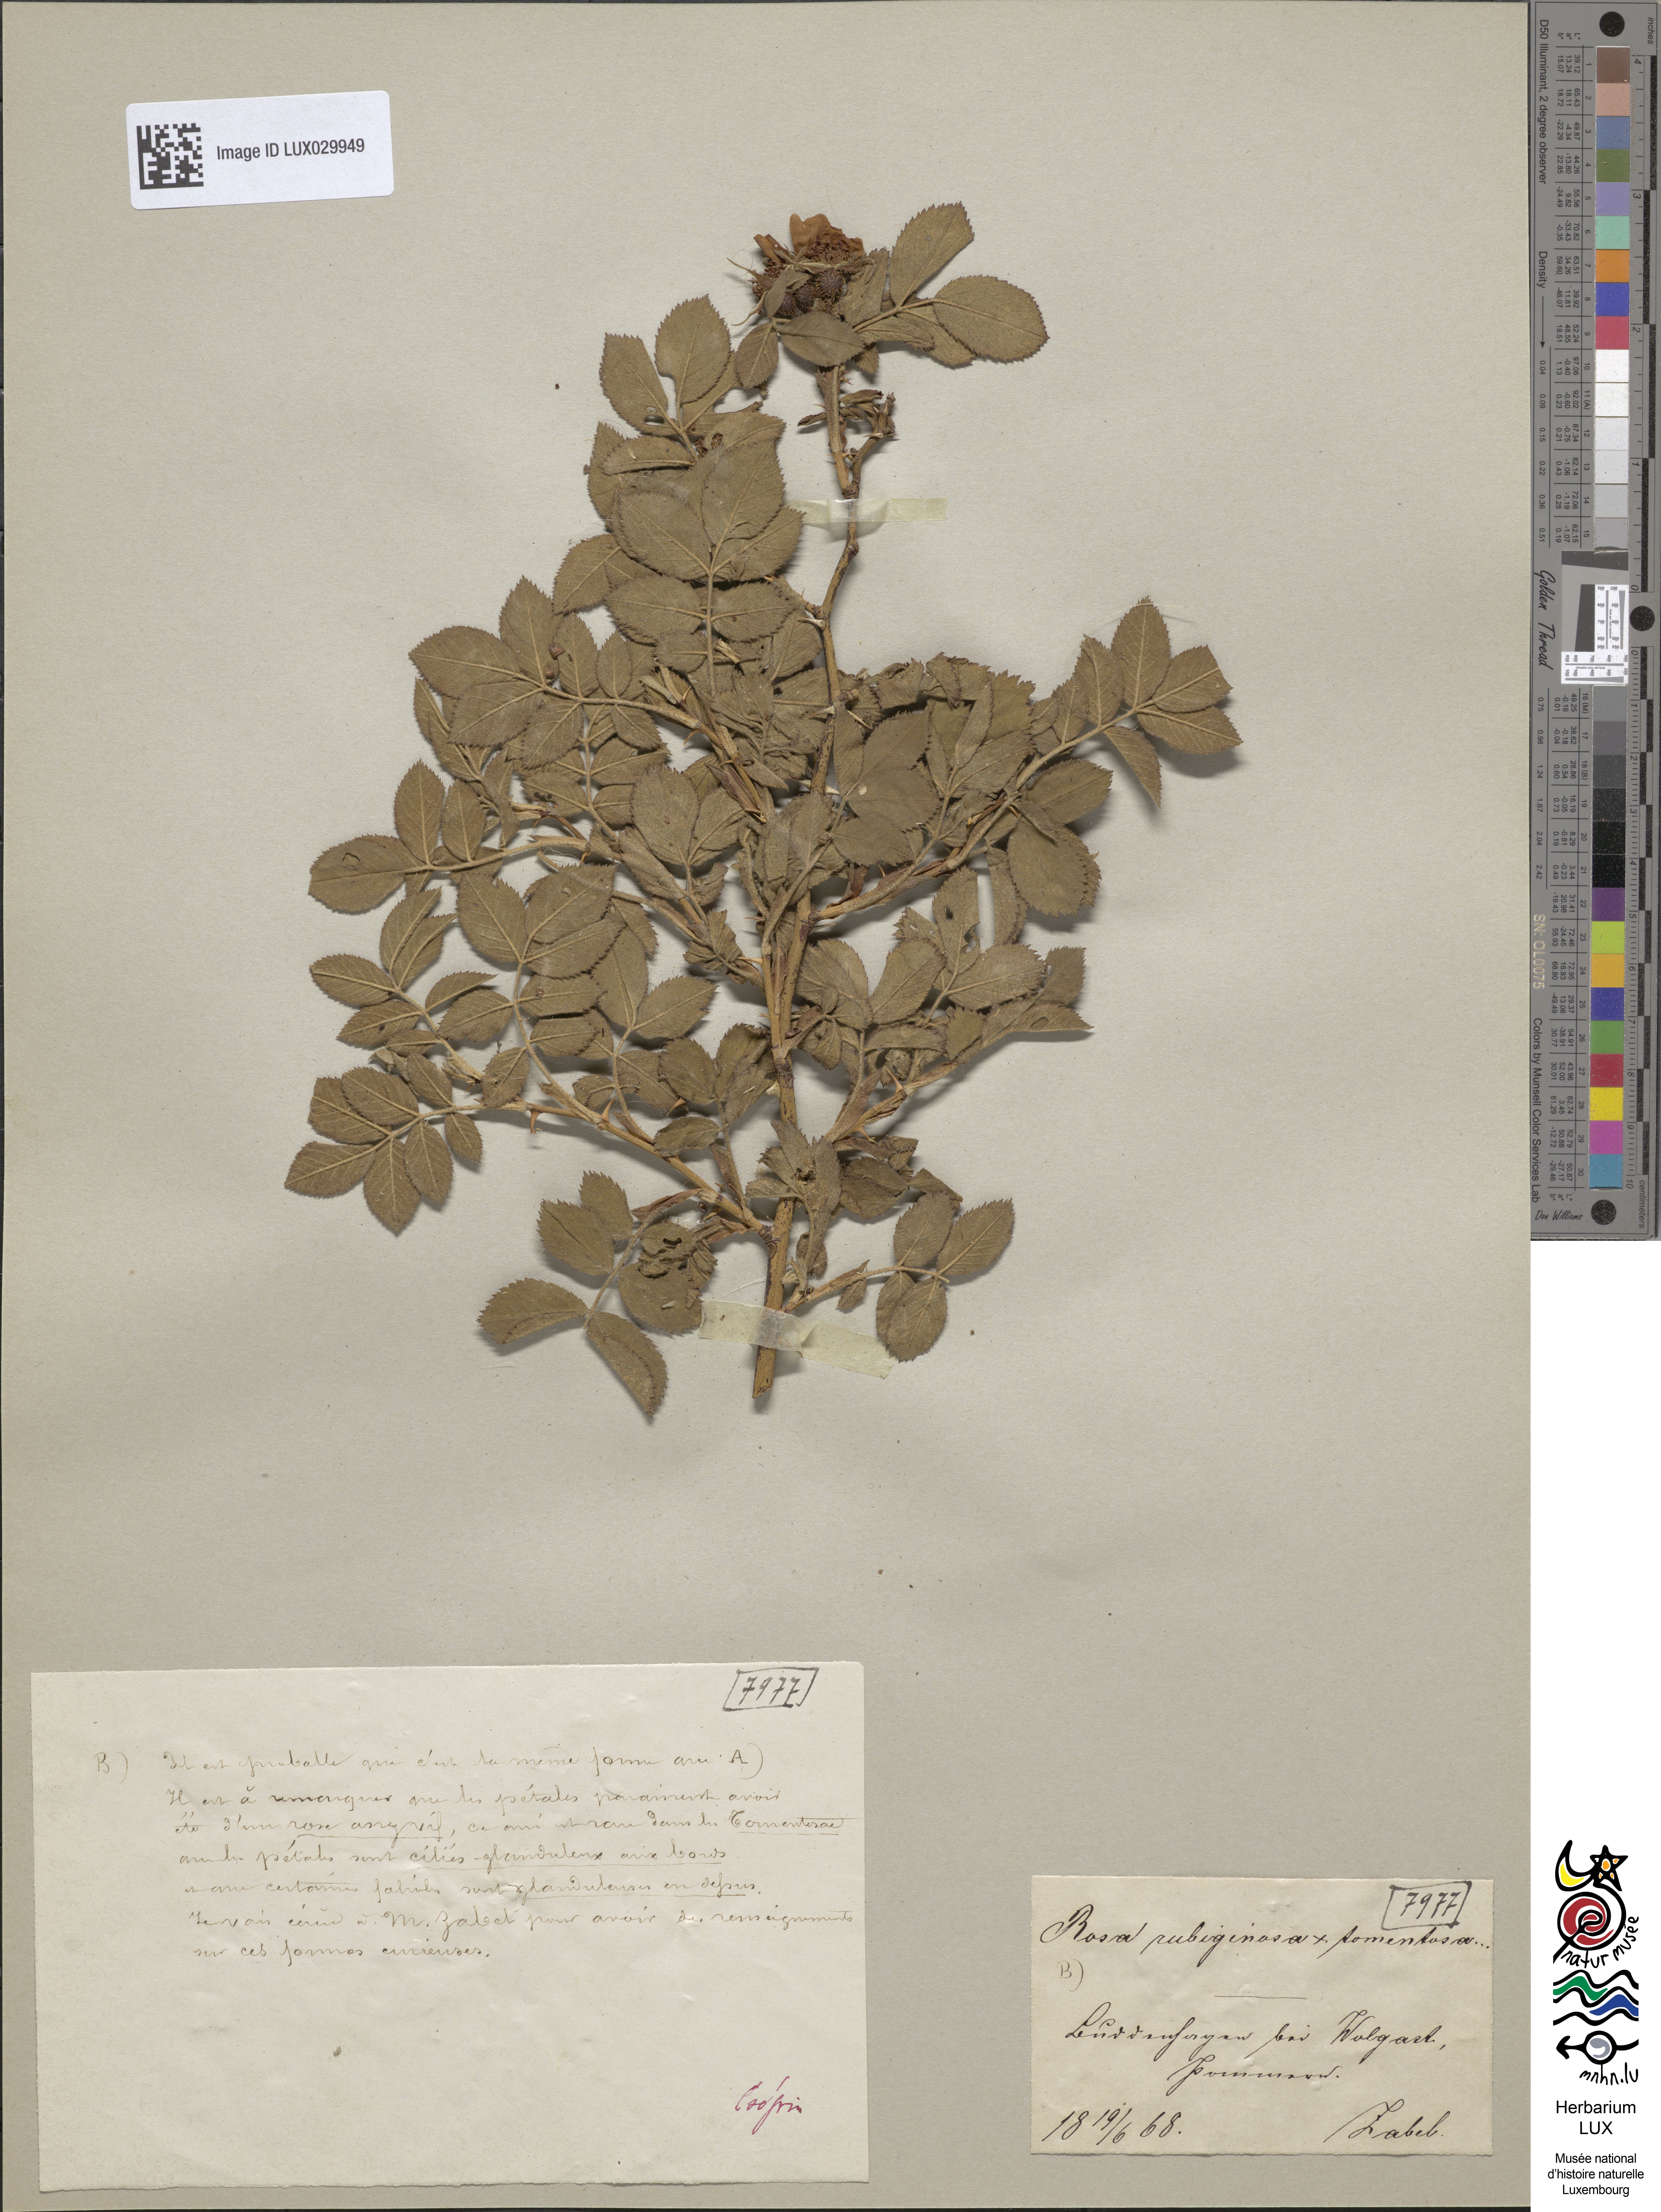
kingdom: Plantae
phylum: Tracheophyta
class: Magnoliopsida
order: Rosales
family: Rosaceae
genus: Rosa
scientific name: Rosa tomentosa
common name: Downy rose
